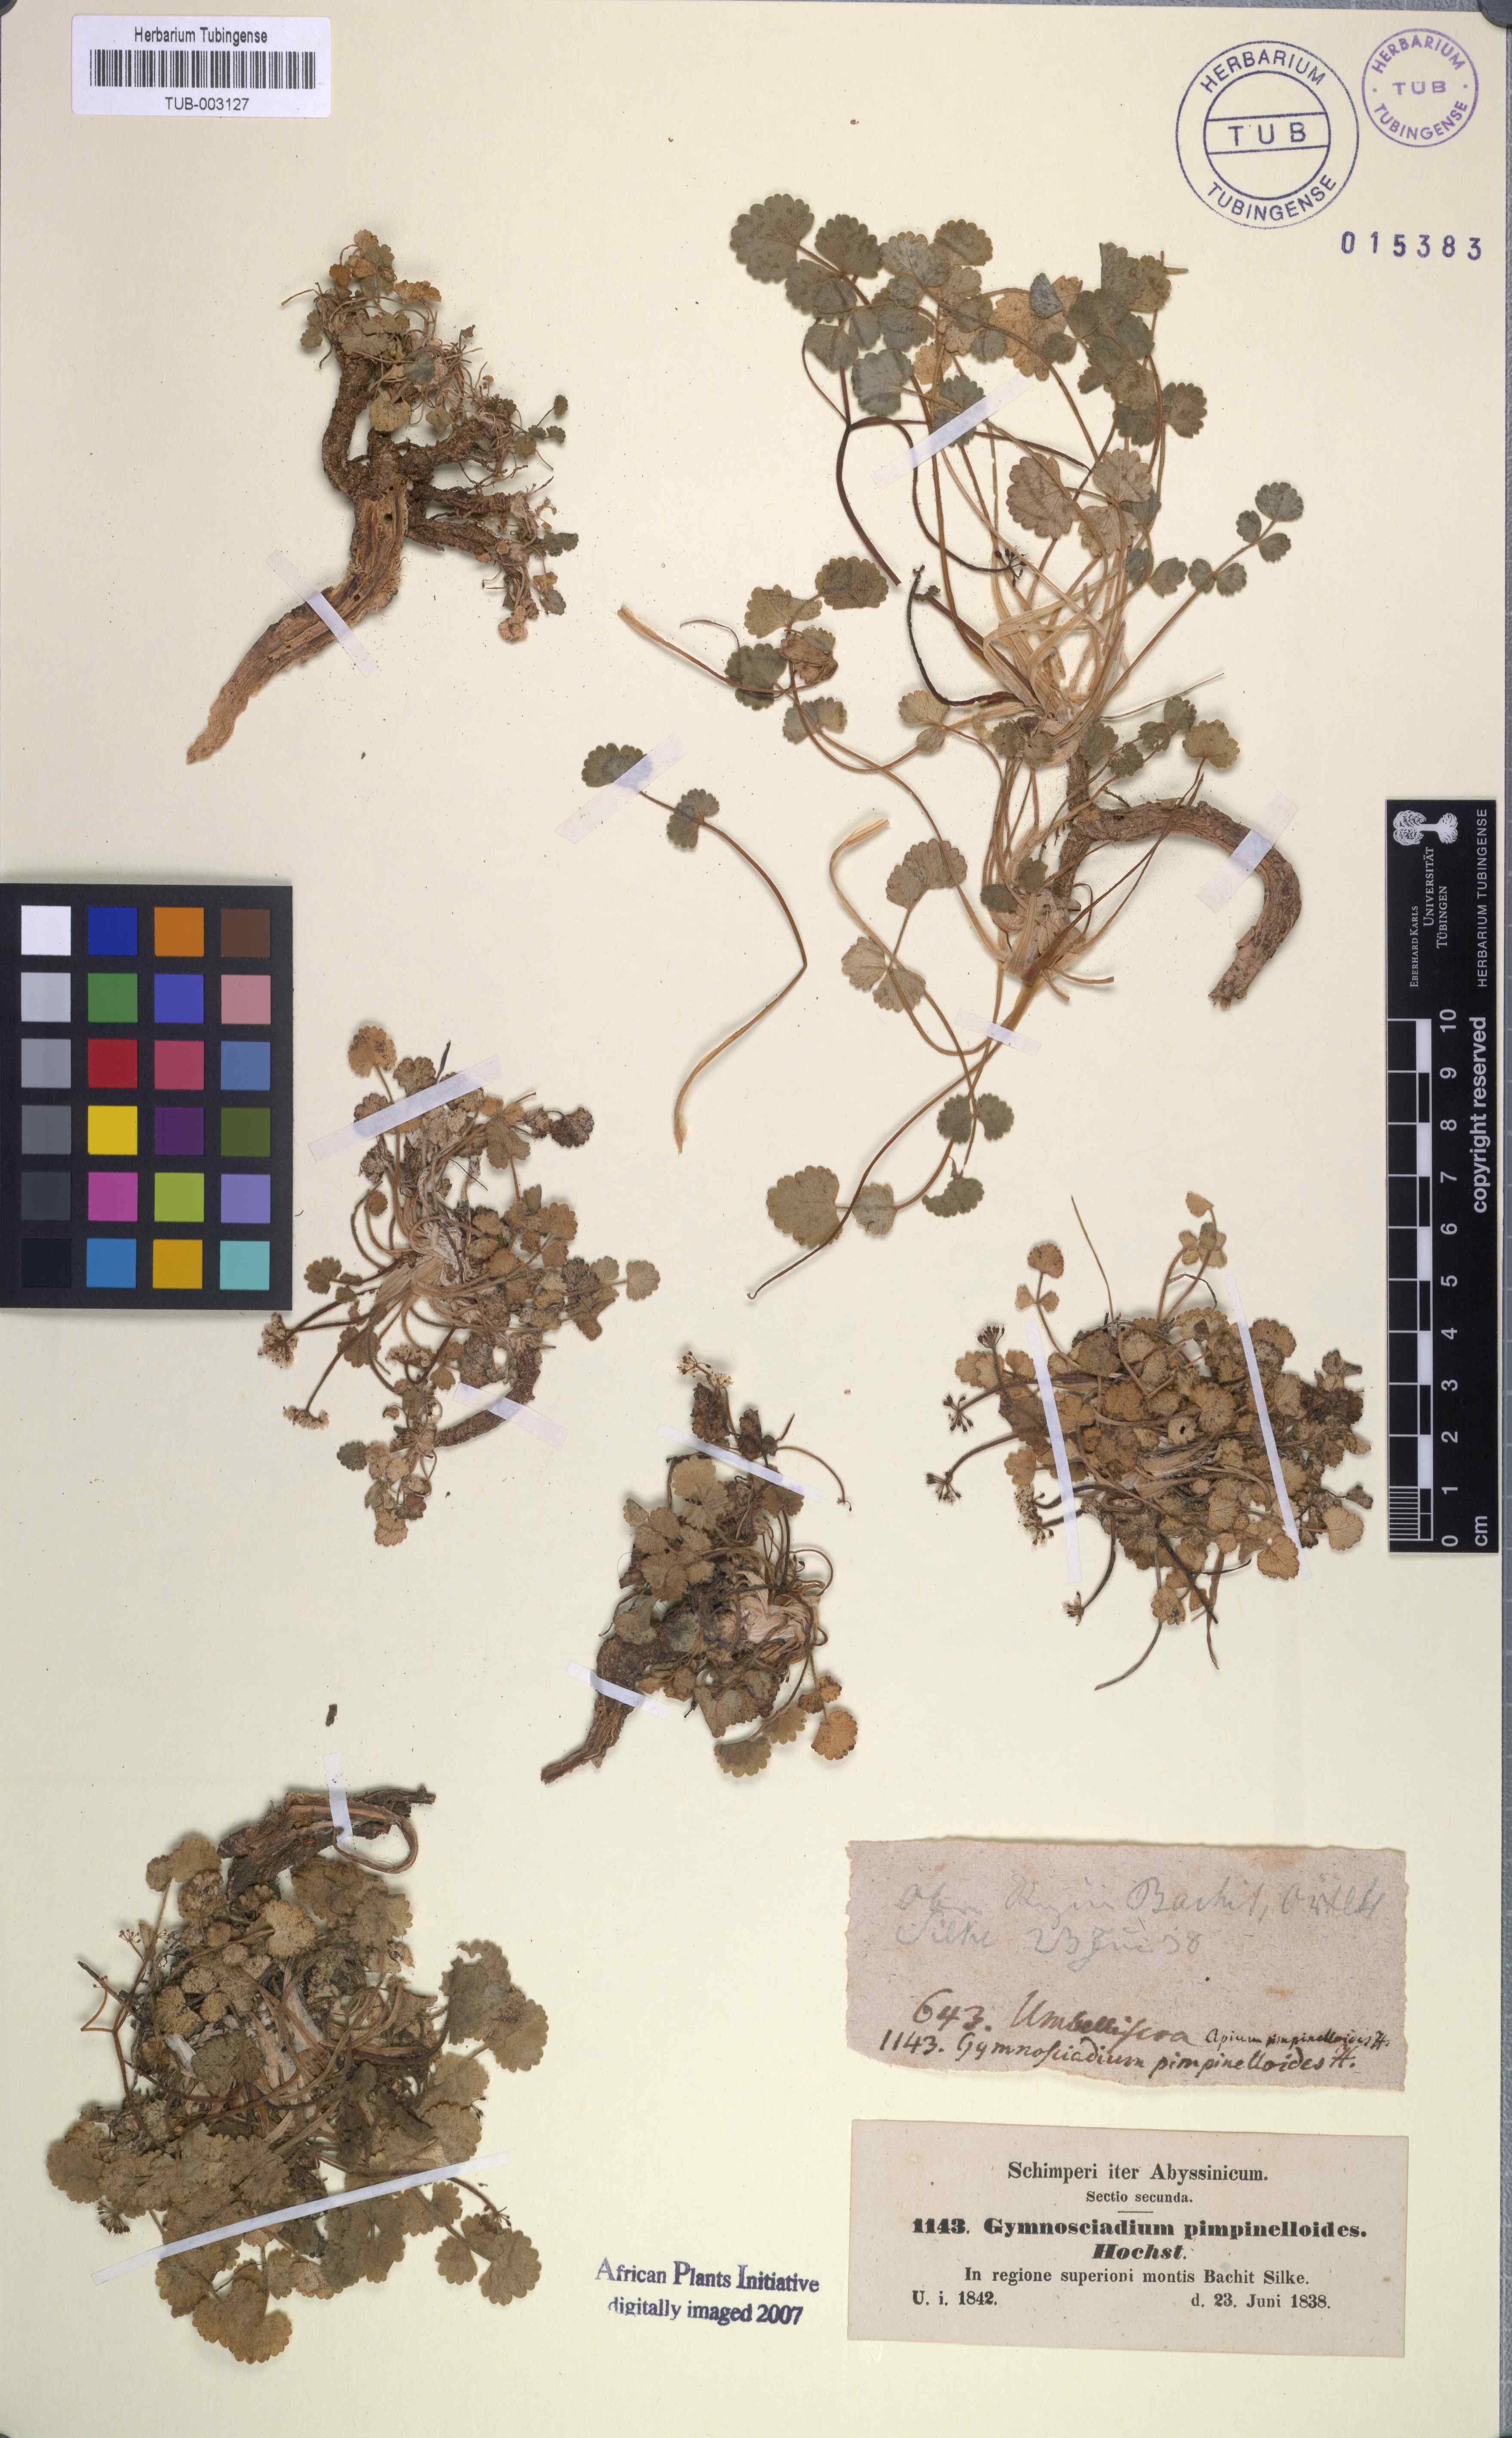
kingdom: Plantae
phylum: Tracheophyta
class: Magnoliopsida
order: Apiales
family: Apiaceae
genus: Pimpinella
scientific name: Pimpinella pimpinelloides
